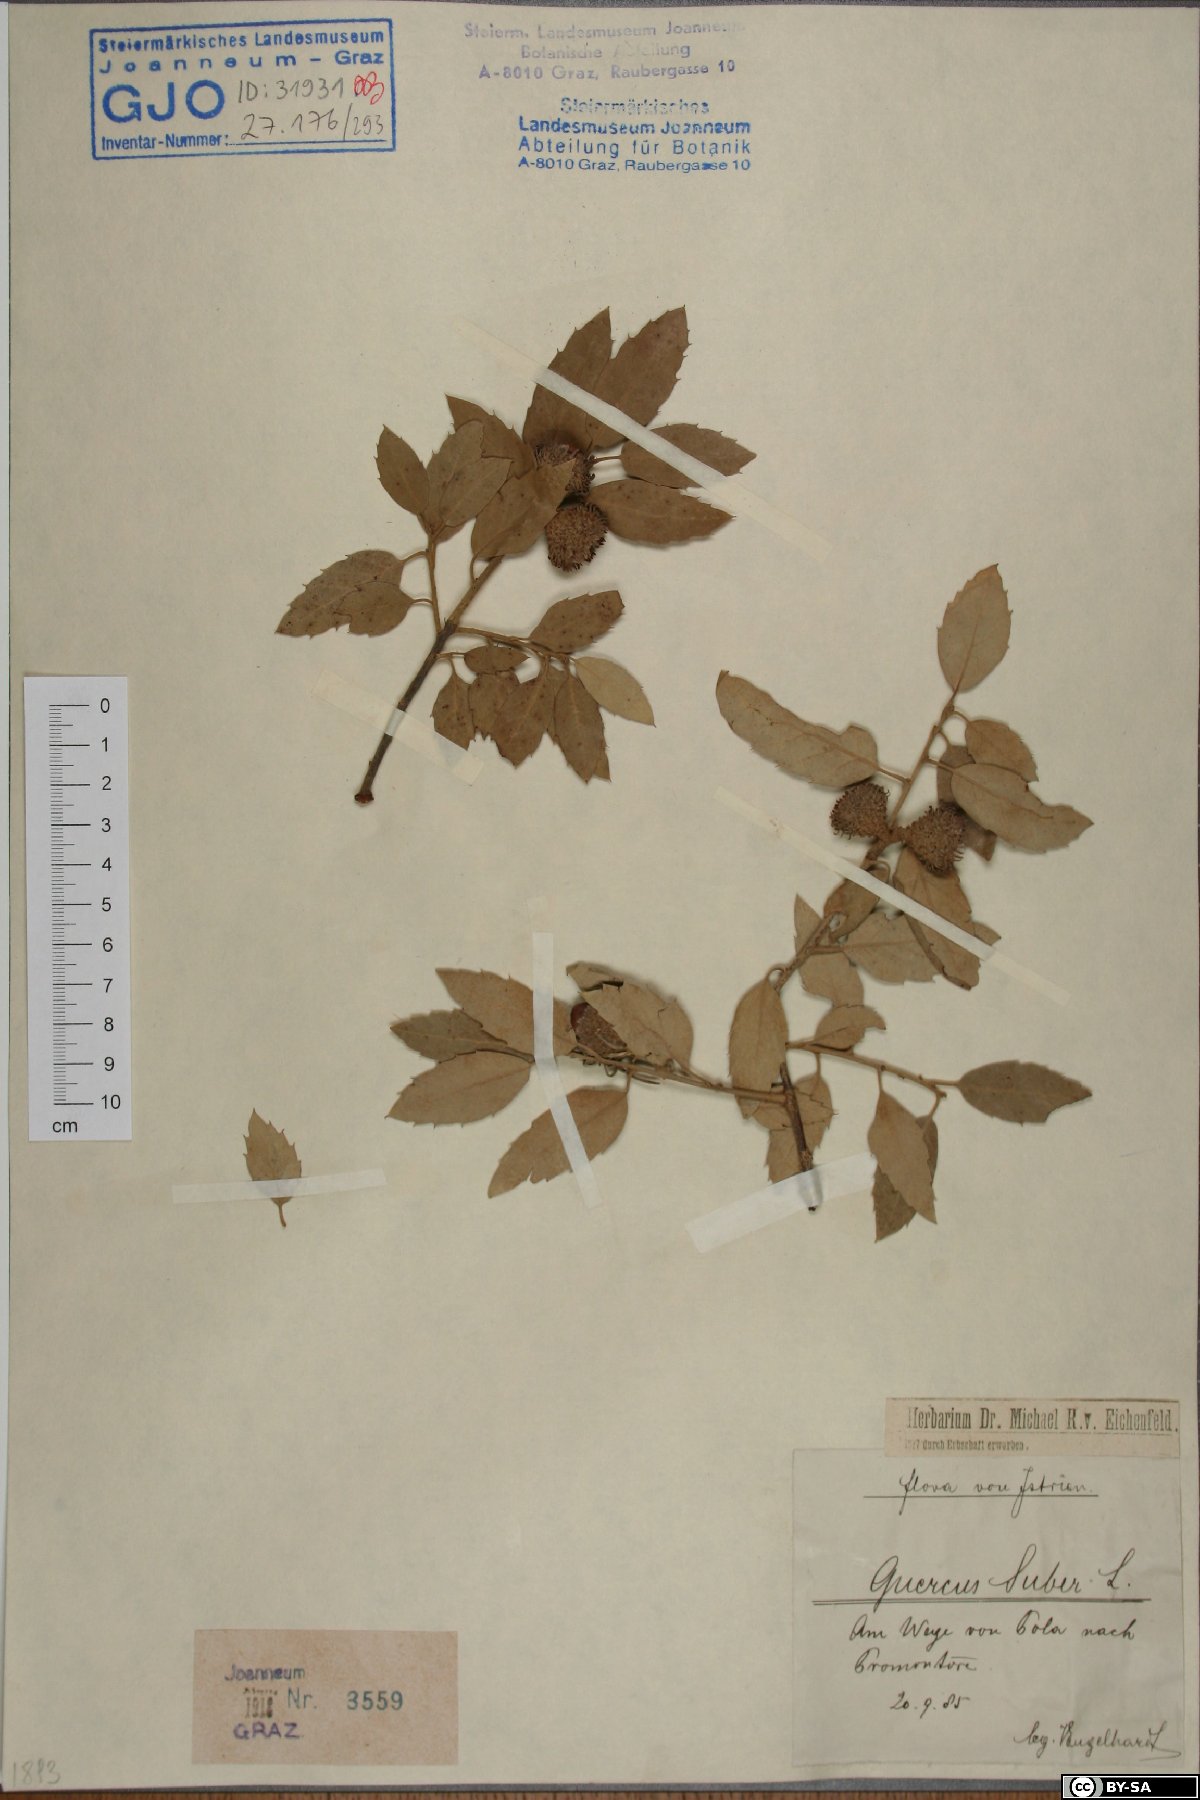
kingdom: Plantae
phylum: Tracheophyta
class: Magnoliopsida
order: Fagales
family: Fagaceae
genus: Quercus
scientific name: Quercus suber
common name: Cork oak
